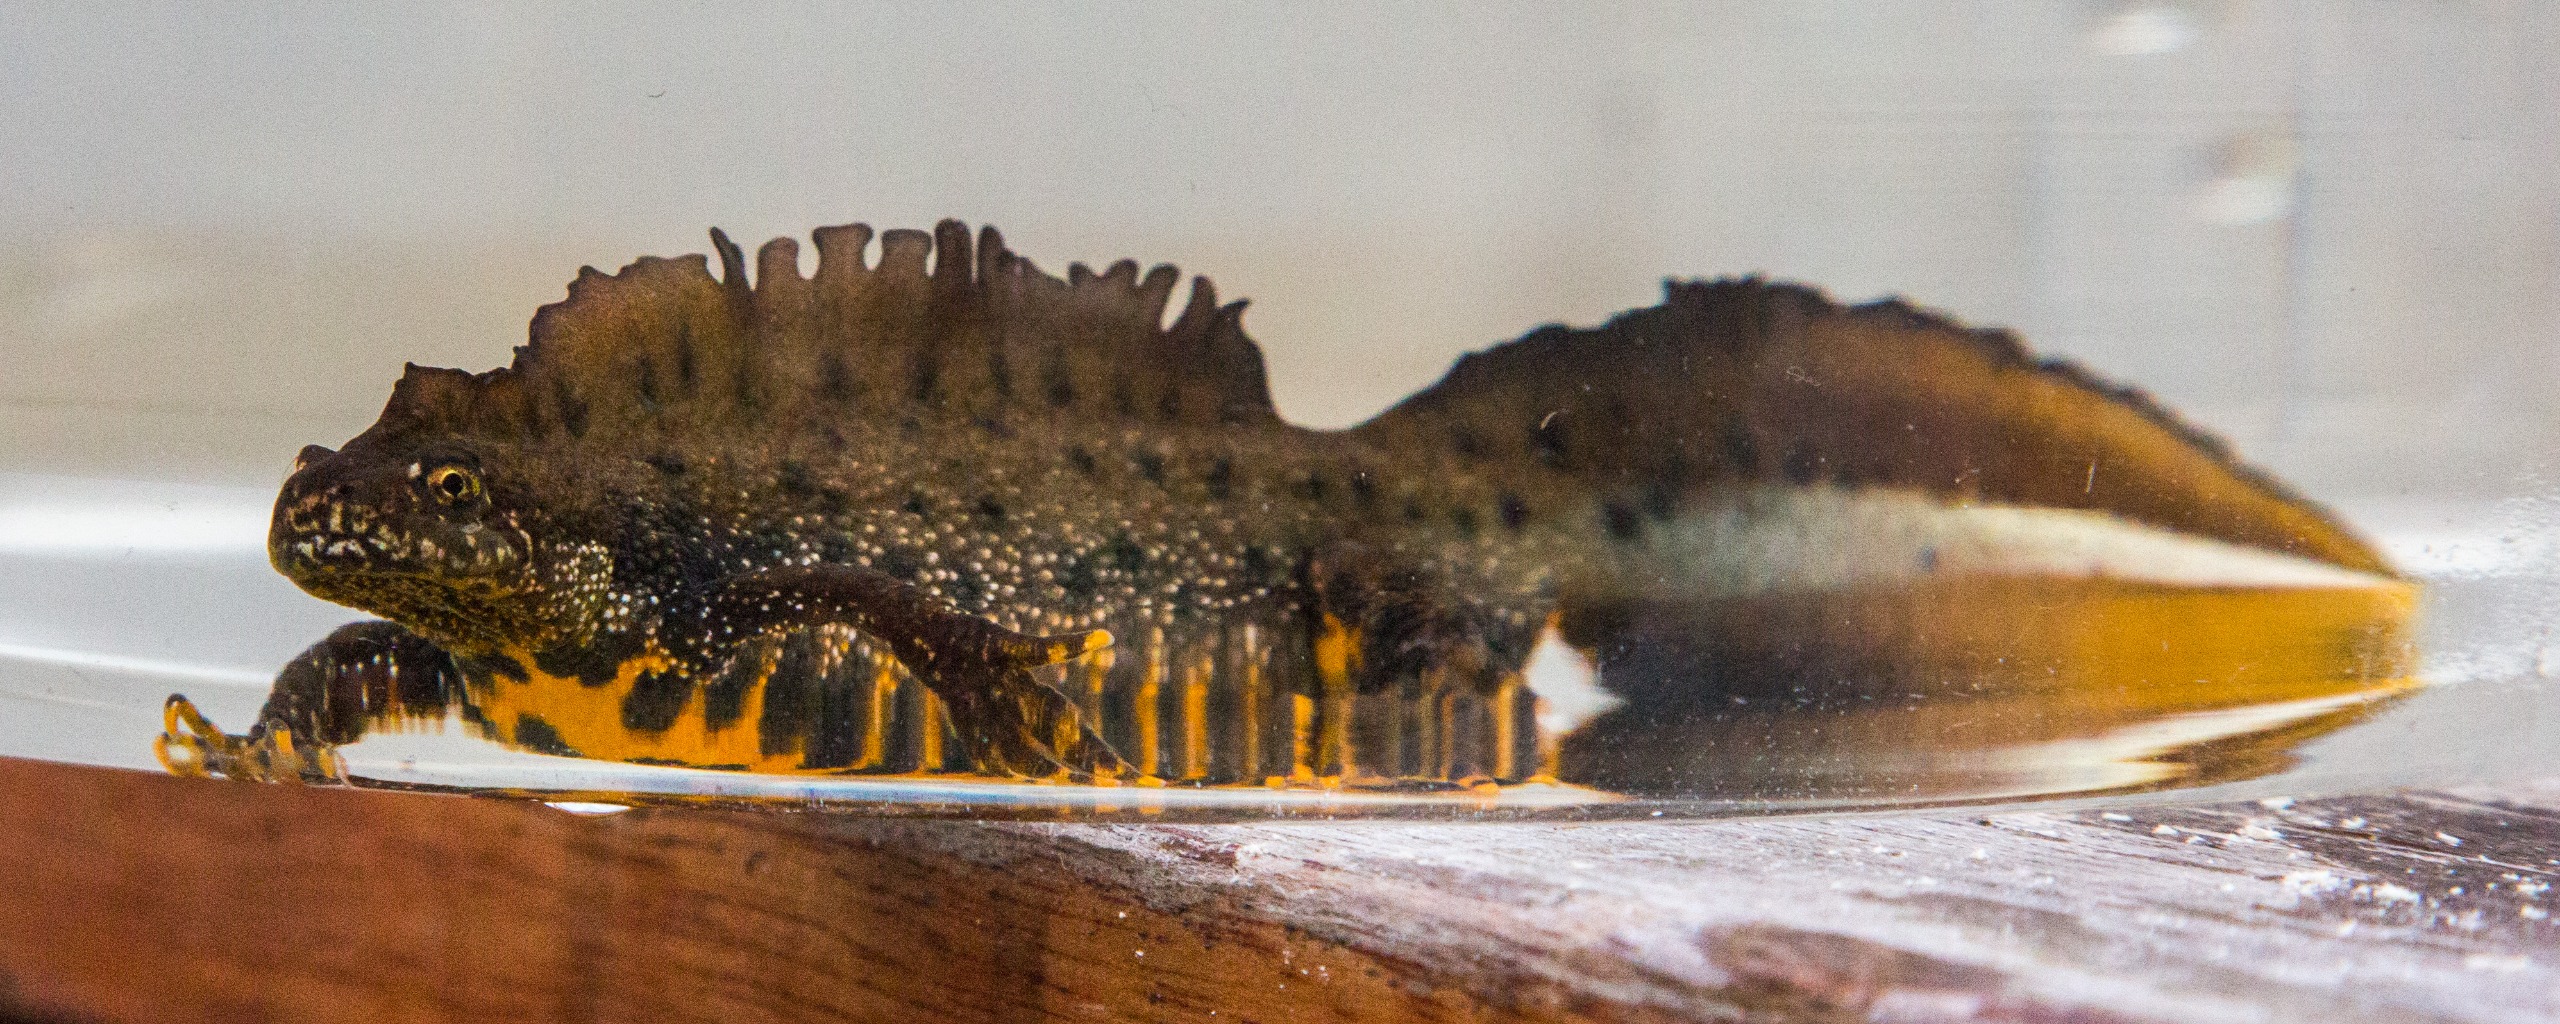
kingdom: Animalia
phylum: Chordata
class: Amphibia
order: Caudata
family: Salamandridae
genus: Triturus
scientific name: Triturus cristatus
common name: Stor vandsalamander
